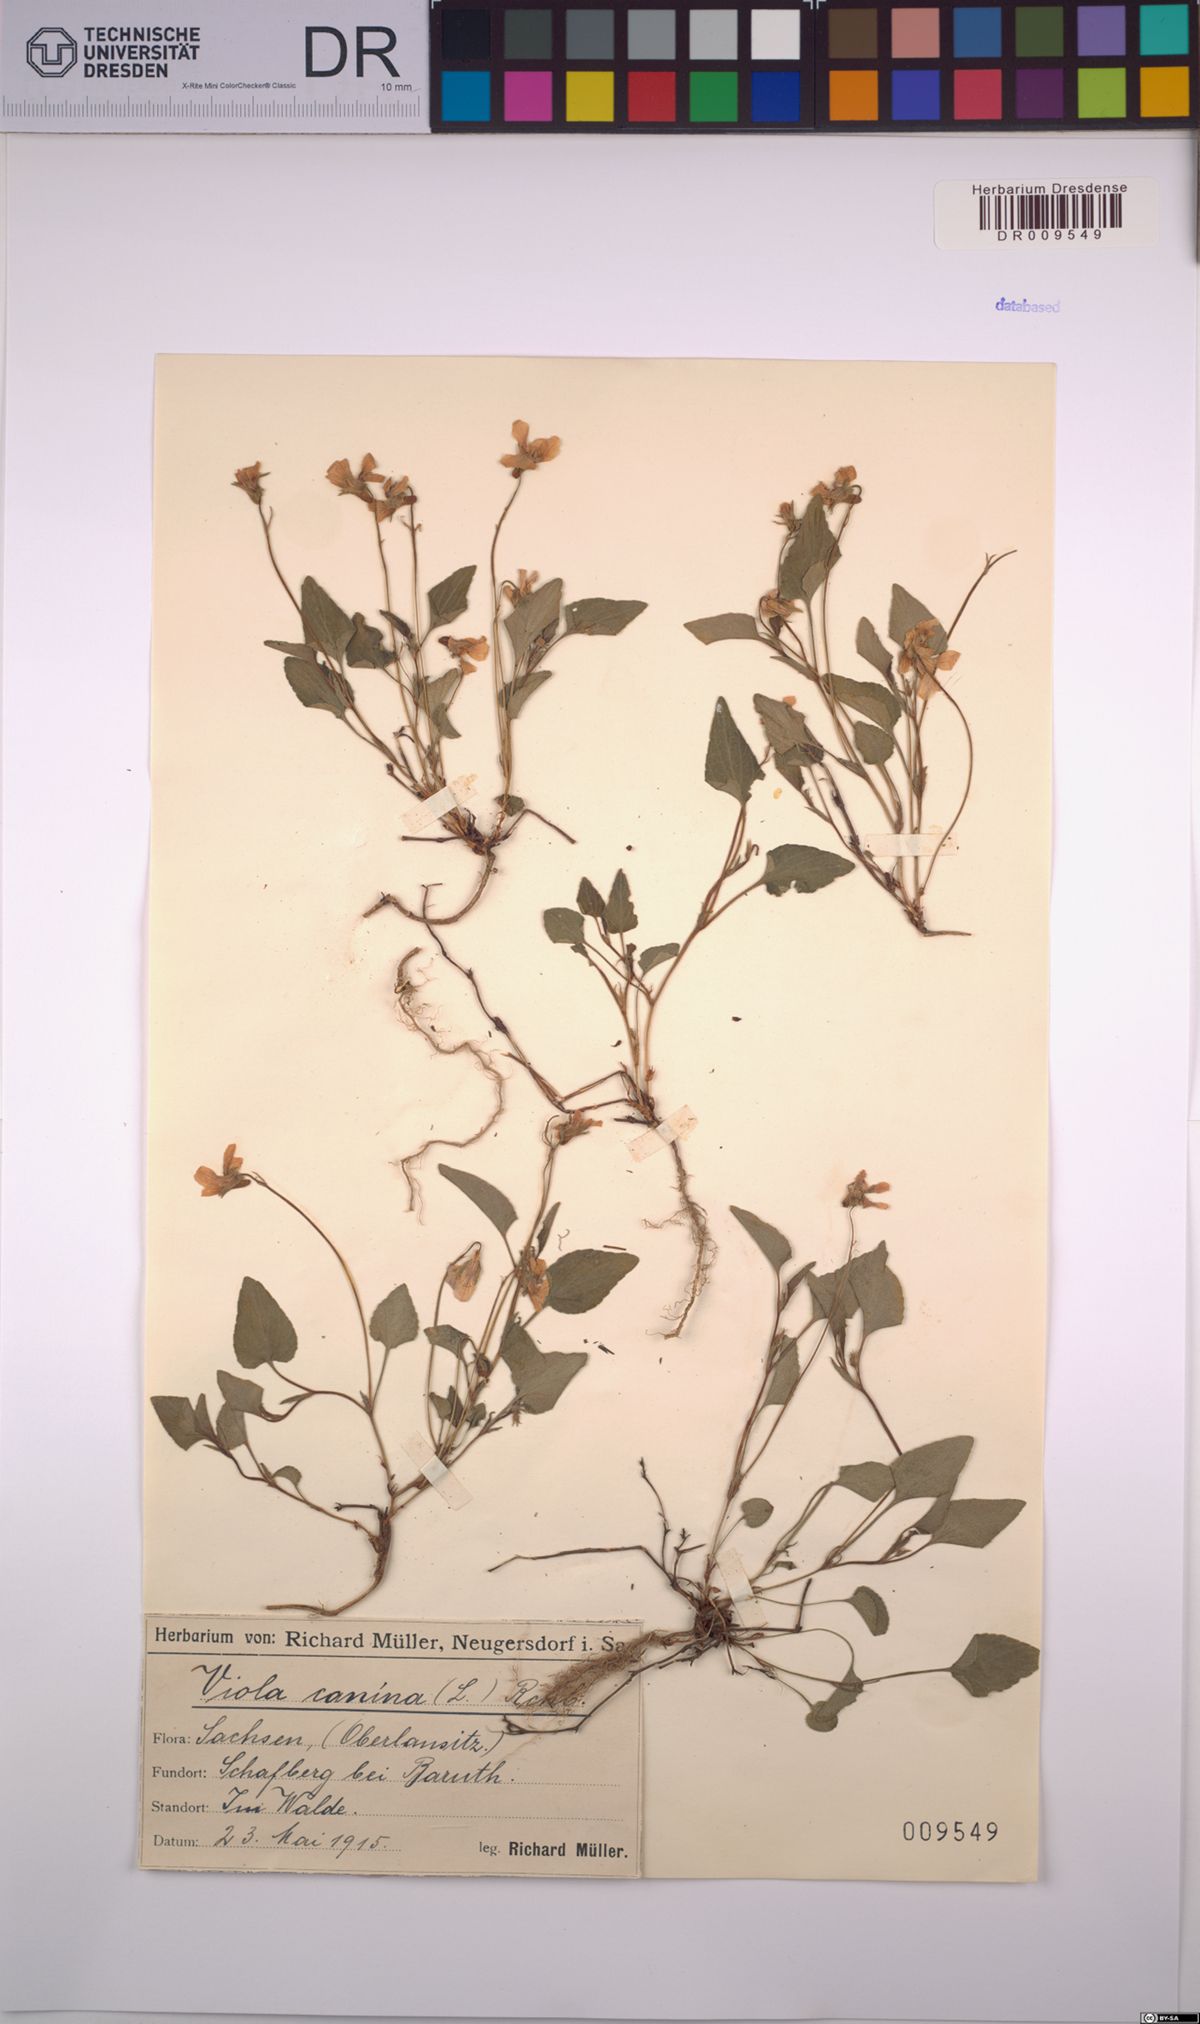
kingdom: Plantae
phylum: Tracheophyta
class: Magnoliopsida
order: Malpighiales
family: Violaceae
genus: Viola
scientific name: Viola canina
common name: Heath dog-violet
